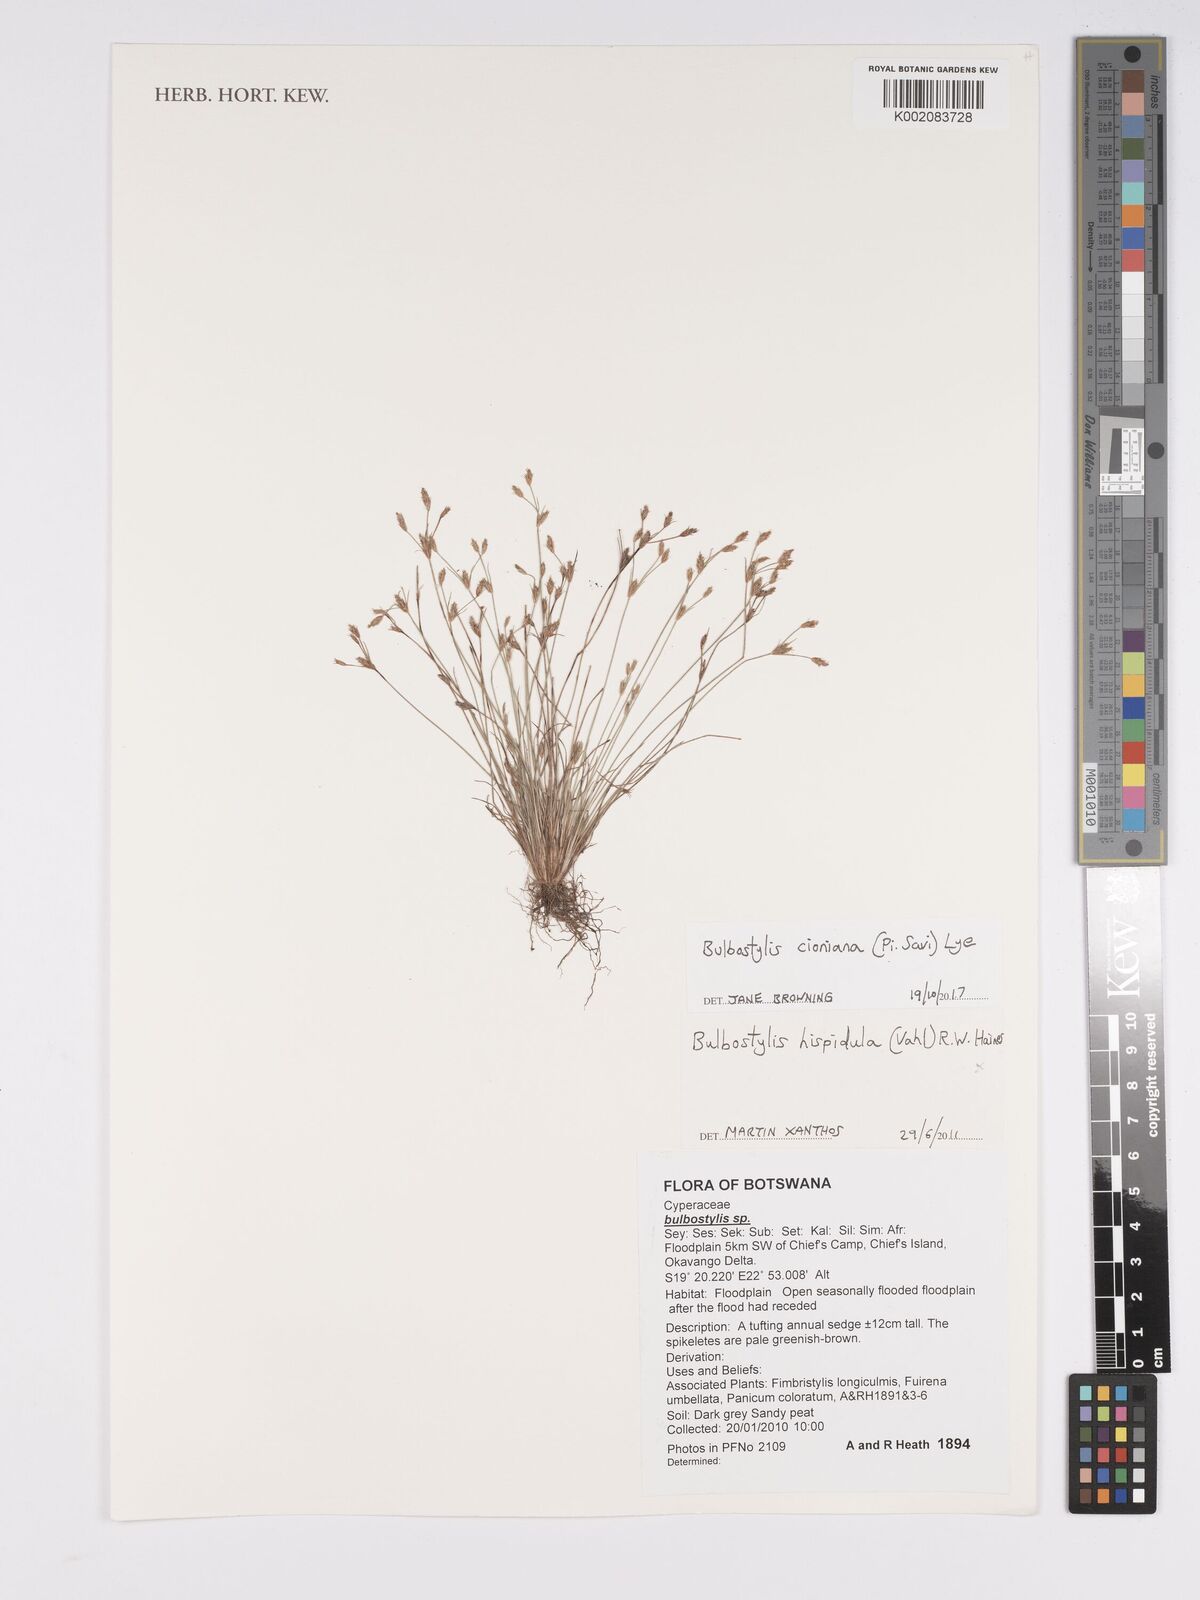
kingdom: Plantae
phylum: Tracheophyta
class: Liliopsida
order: Poales
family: Cyperaceae
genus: Bulbostylis
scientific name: Bulbostylis cioniana
